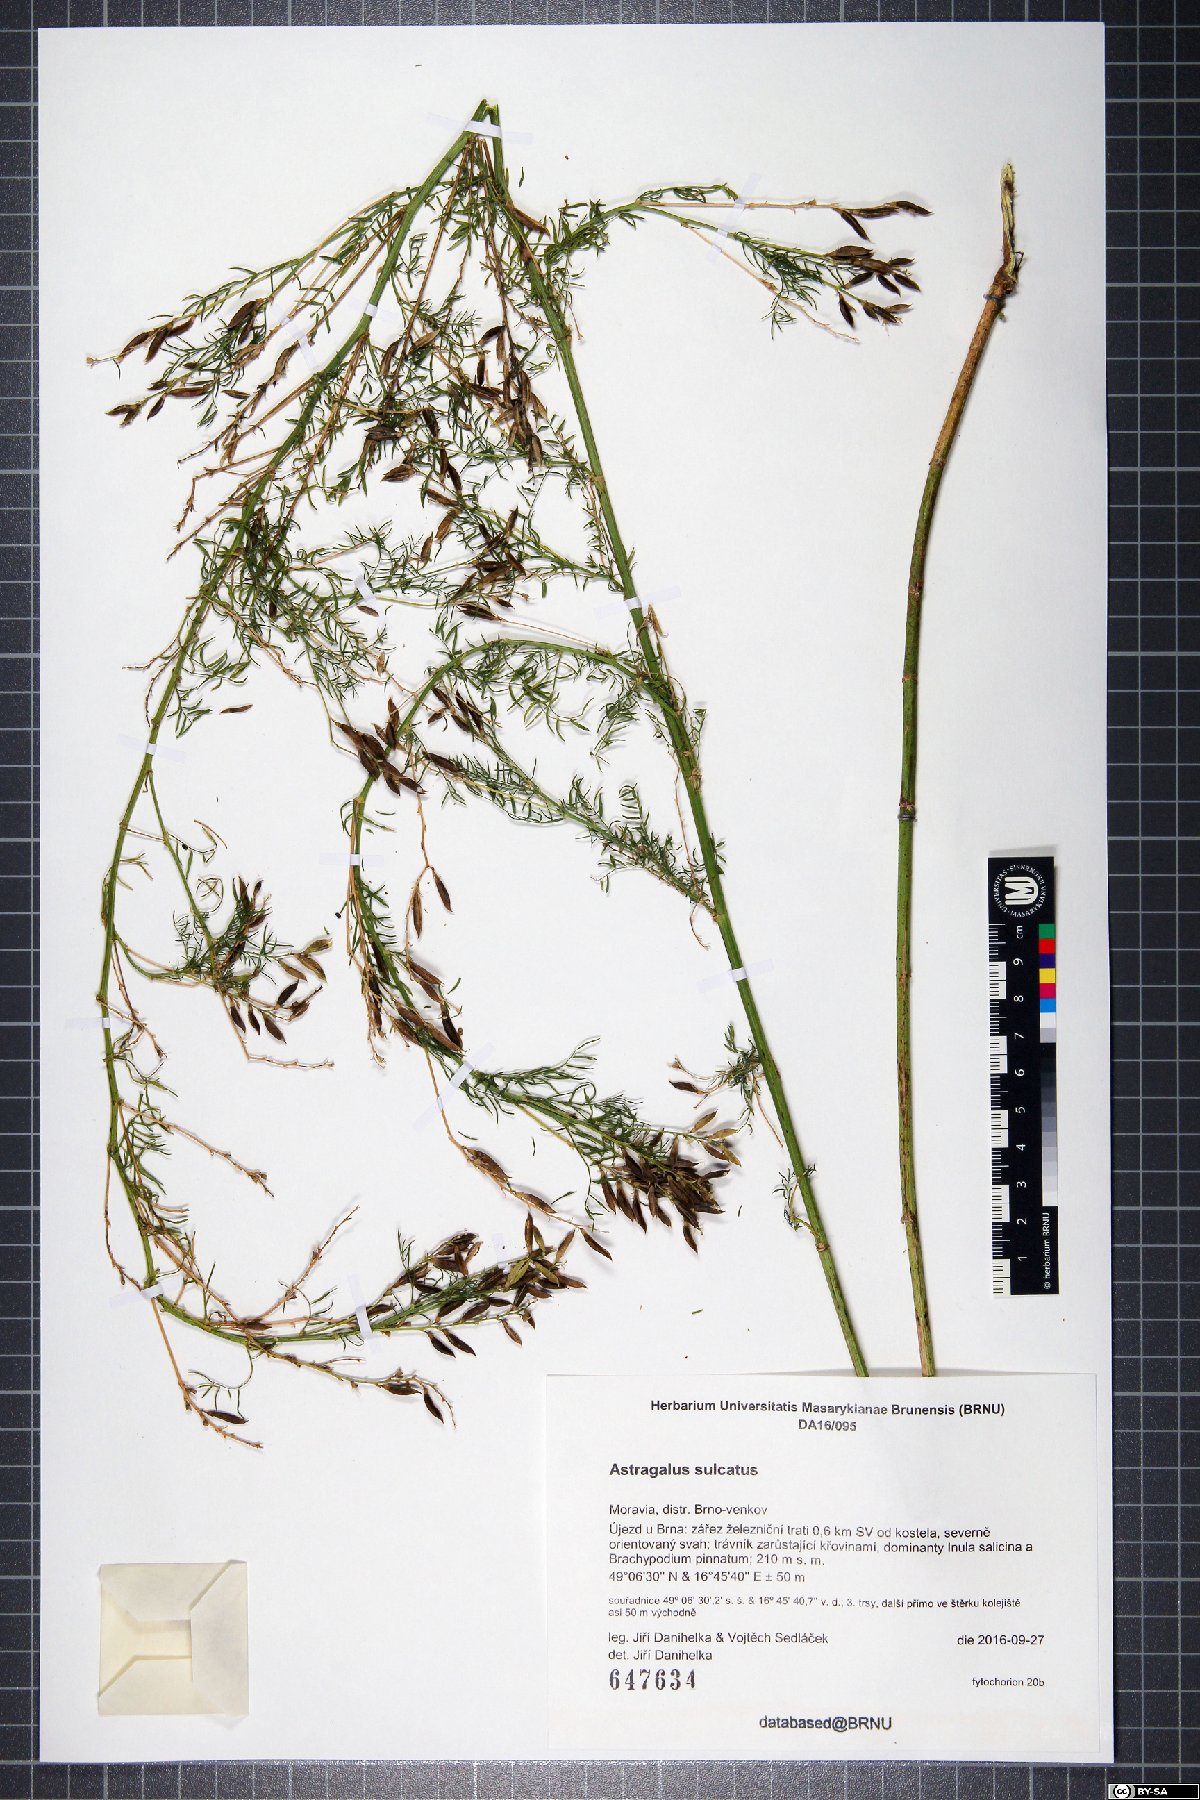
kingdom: Plantae
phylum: Tracheophyta
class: Magnoliopsida
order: Fabales
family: Fabaceae
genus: Astragalus
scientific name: Astragalus sulcatus
